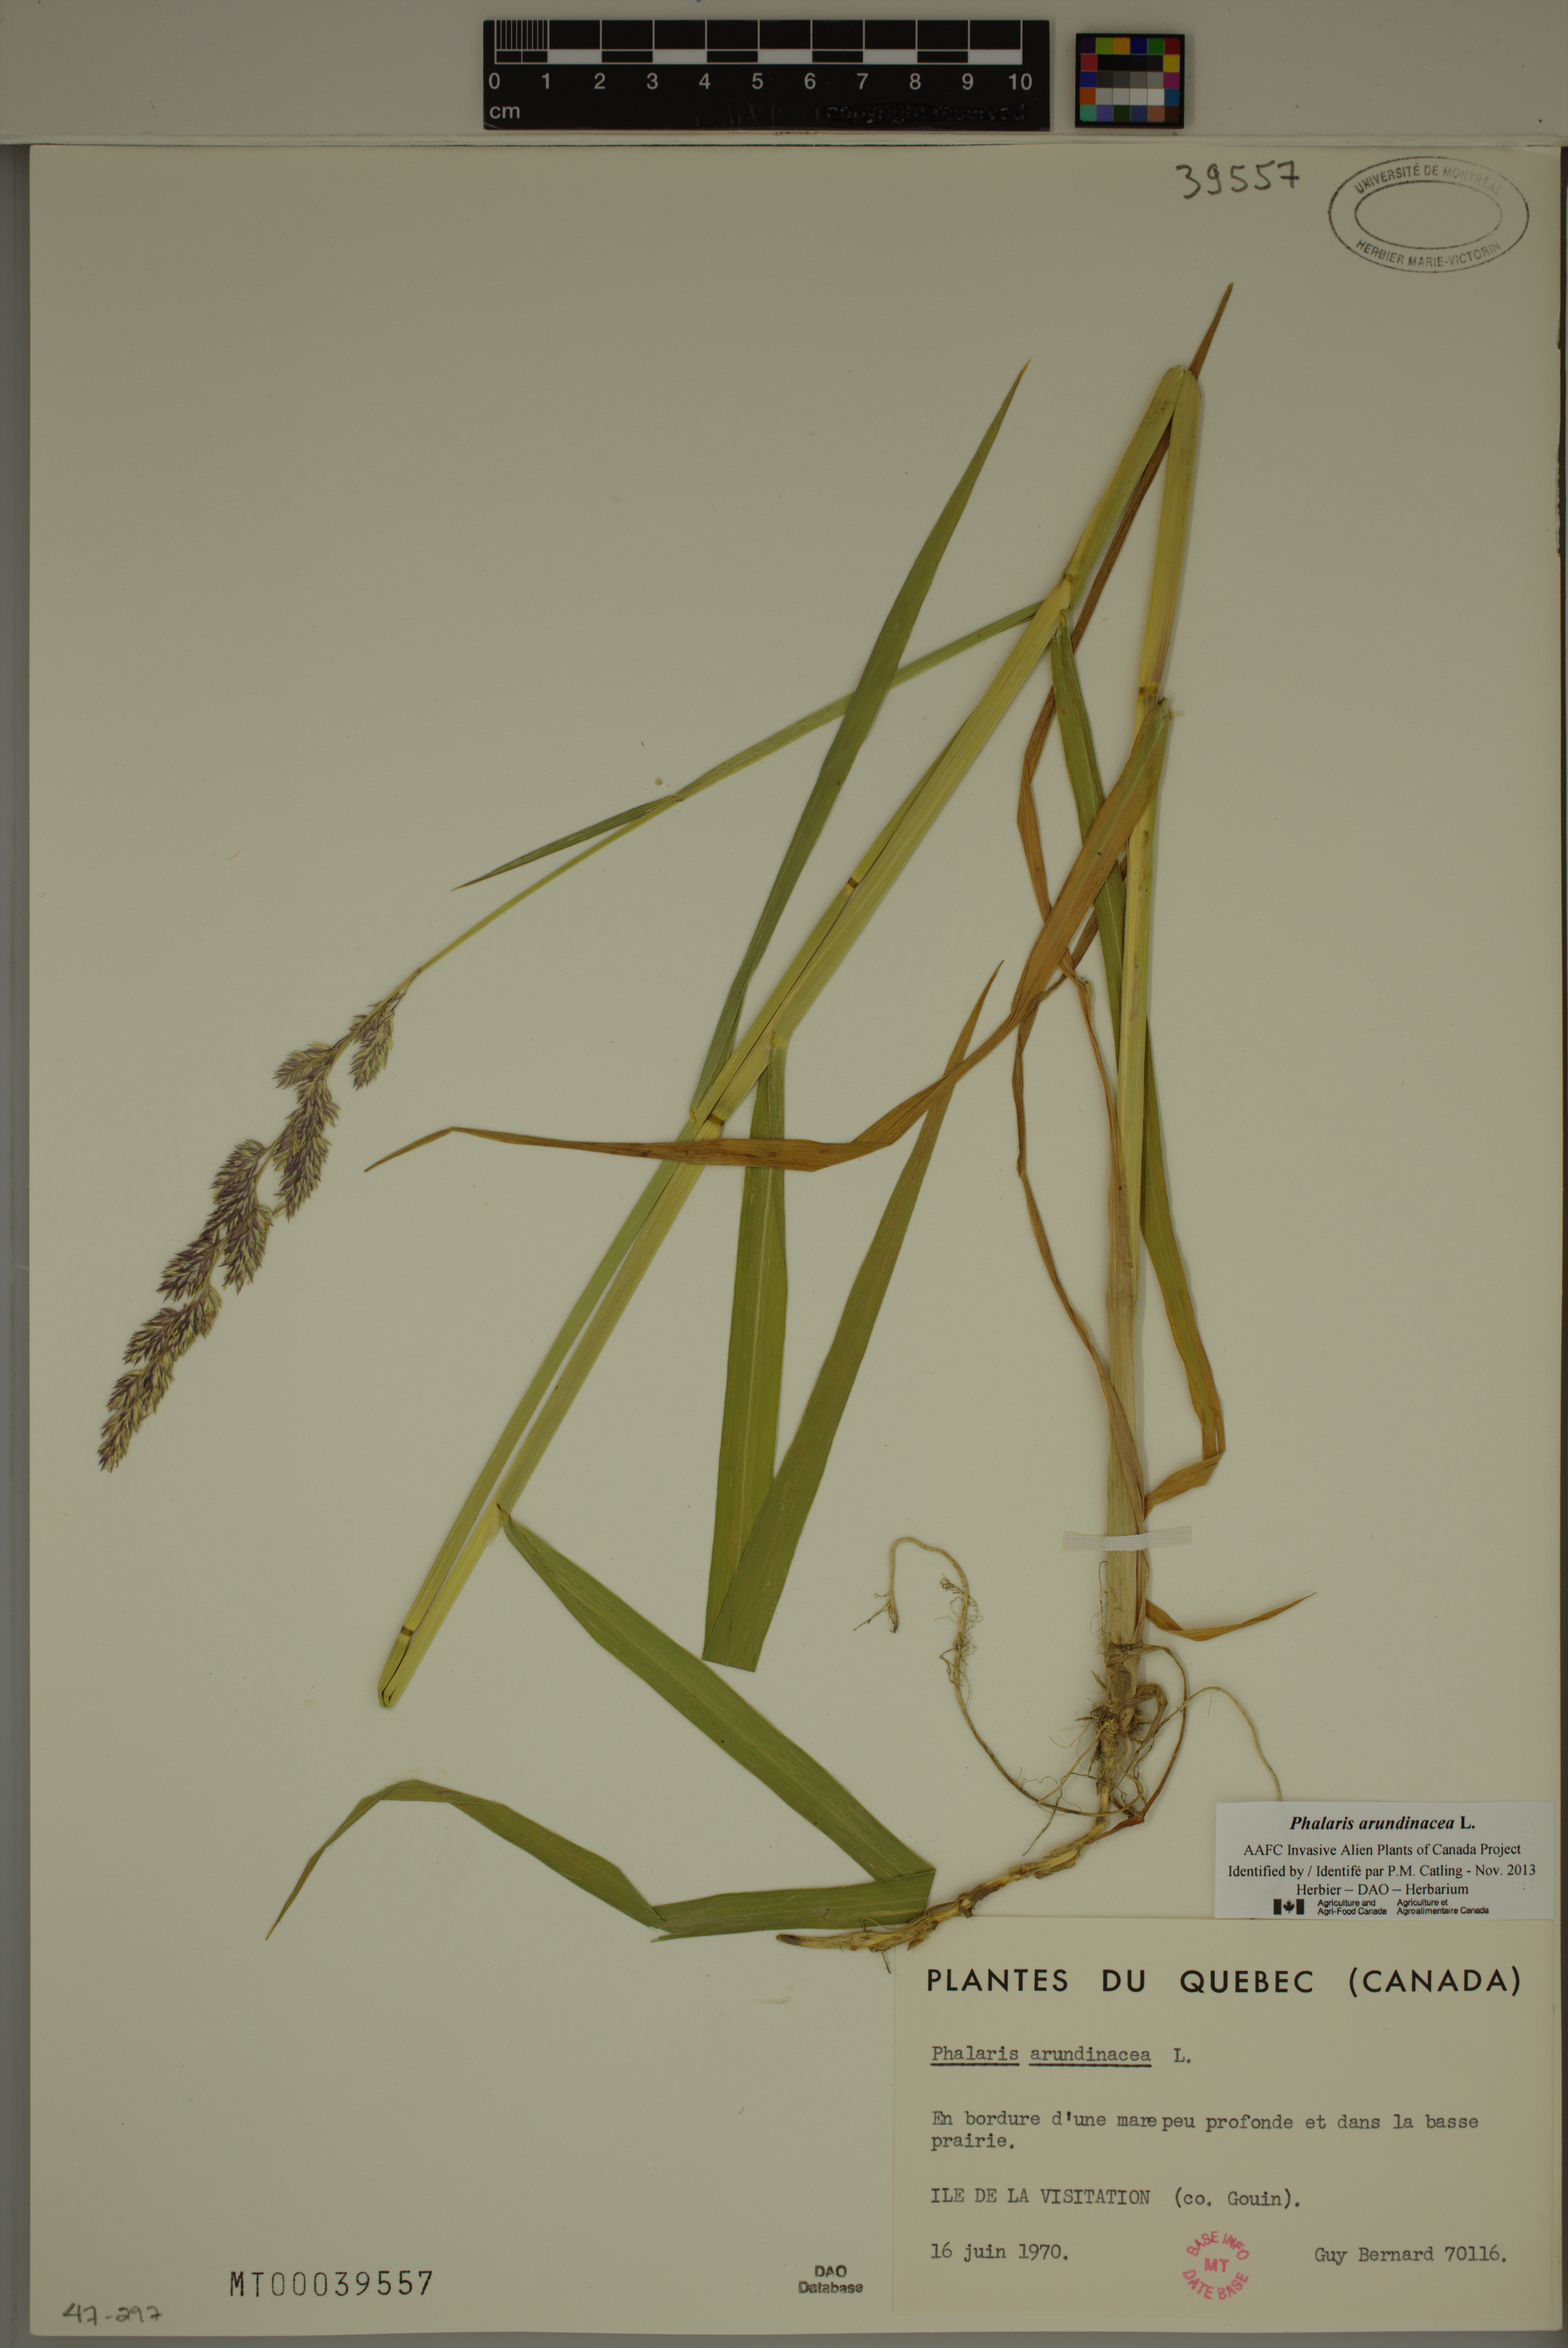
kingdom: Plantae
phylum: Tracheophyta
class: Liliopsida
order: Poales
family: Poaceae
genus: Phalaris
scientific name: Phalaris arundinacea
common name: Reed canary-grass
